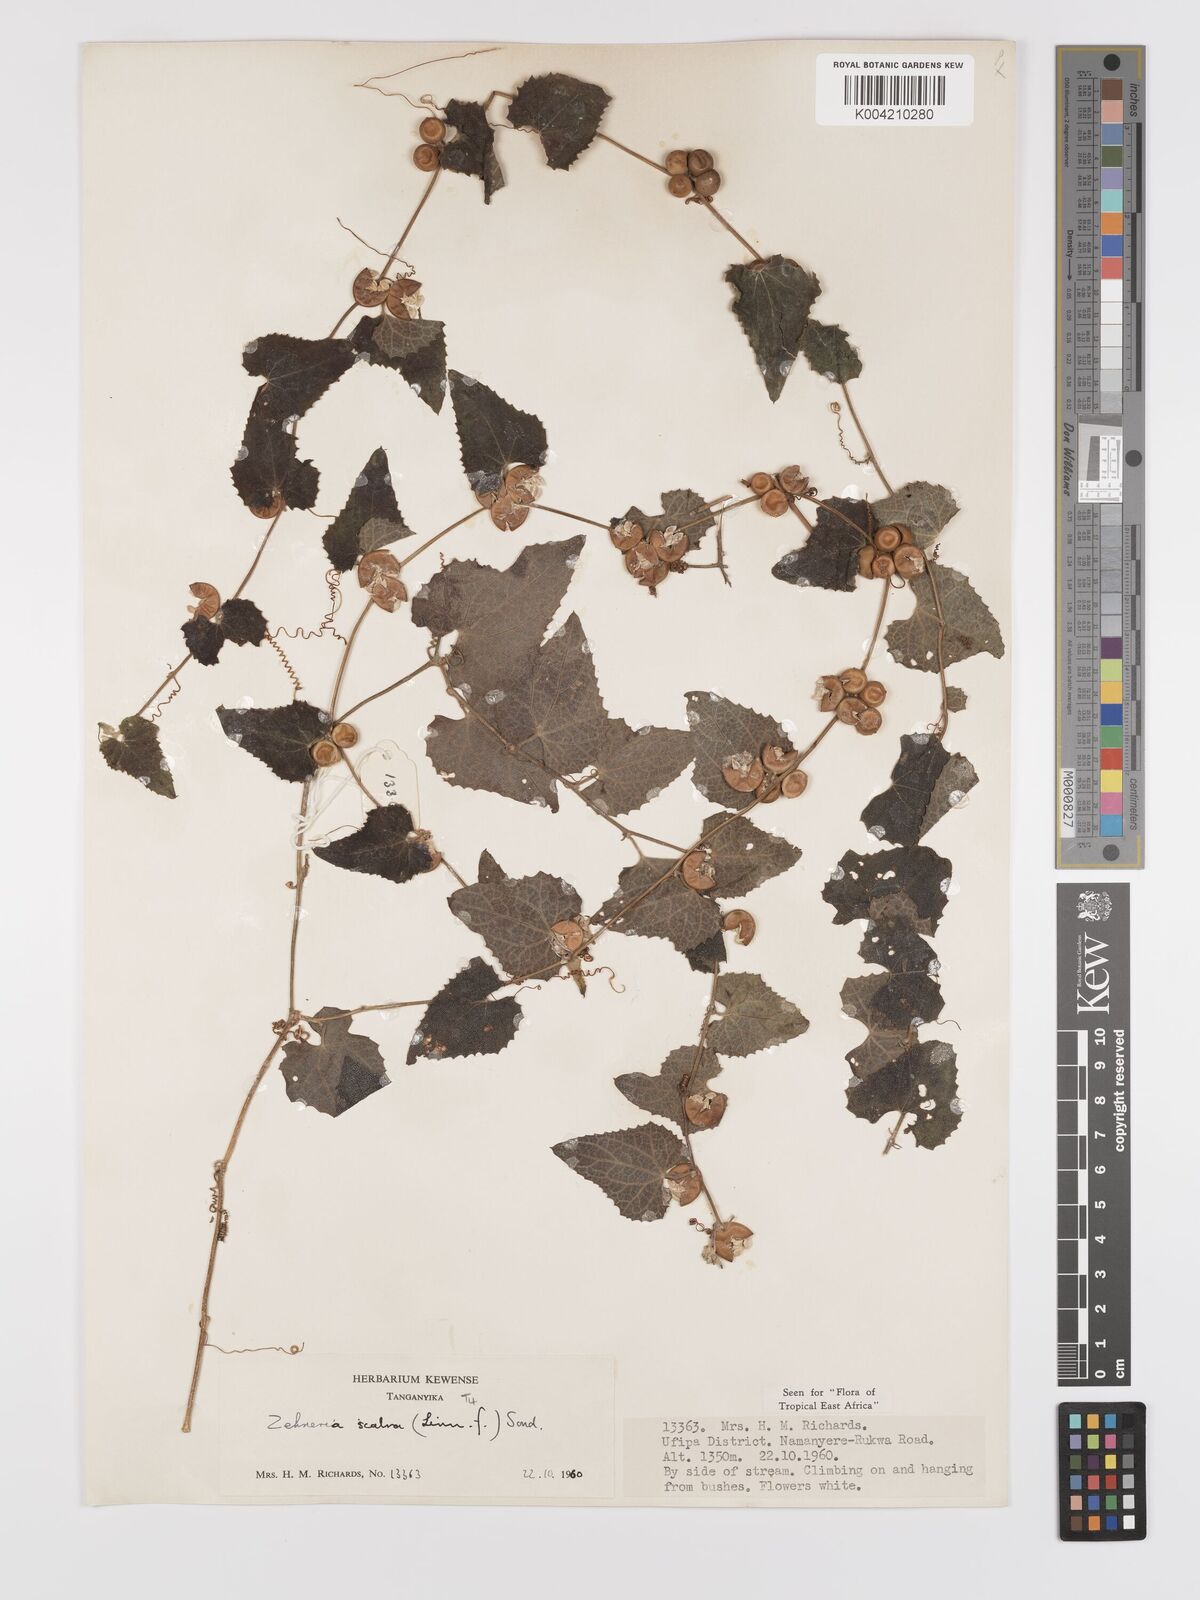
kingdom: Plantae
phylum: Tracheophyta
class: Magnoliopsida
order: Cucurbitales
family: Cucurbitaceae
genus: Zehneria
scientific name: Zehneria scabra
